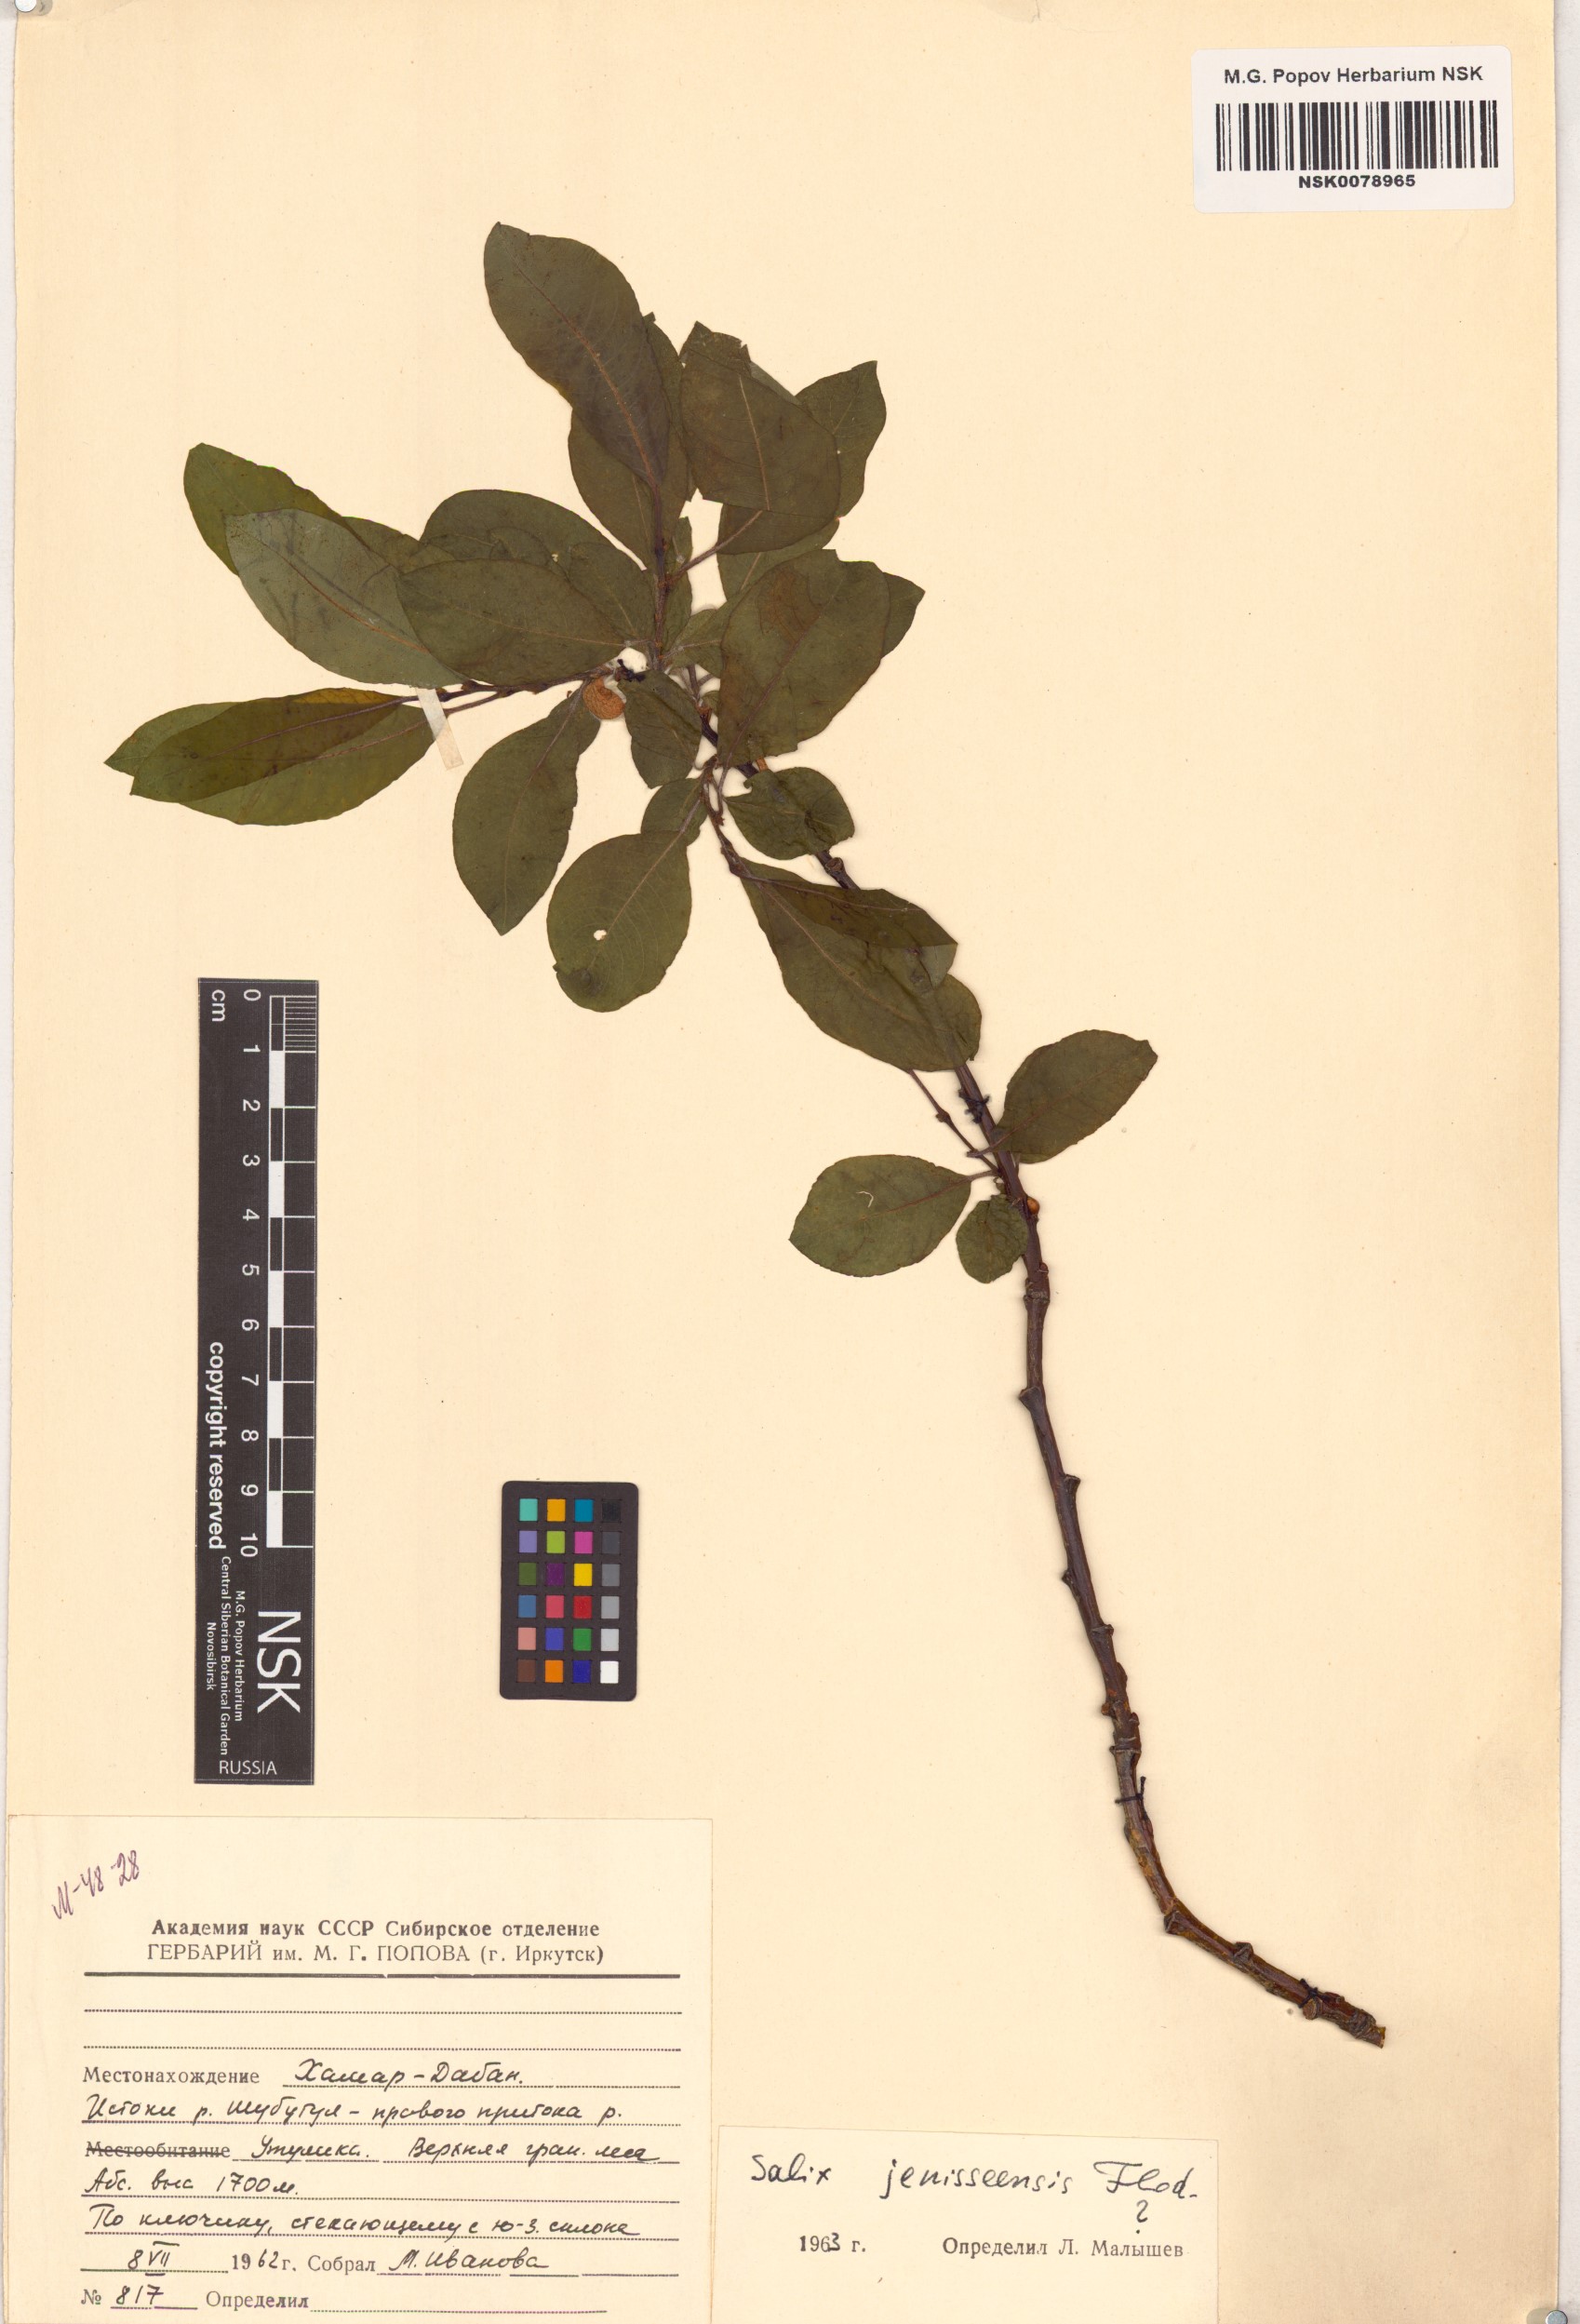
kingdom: Plantae
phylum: Tracheophyta
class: Magnoliopsida
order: Malpighiales
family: Salicaceae
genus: Salix
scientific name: Salix jenisseensis
